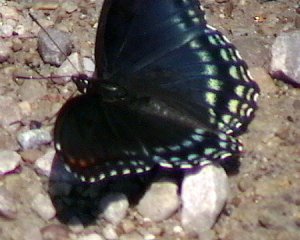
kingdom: Animalia
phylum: Arthropoda
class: Insecta
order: Lepidoptera
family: Nymphalidae
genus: Limenitis
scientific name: Limenitis astyanax
